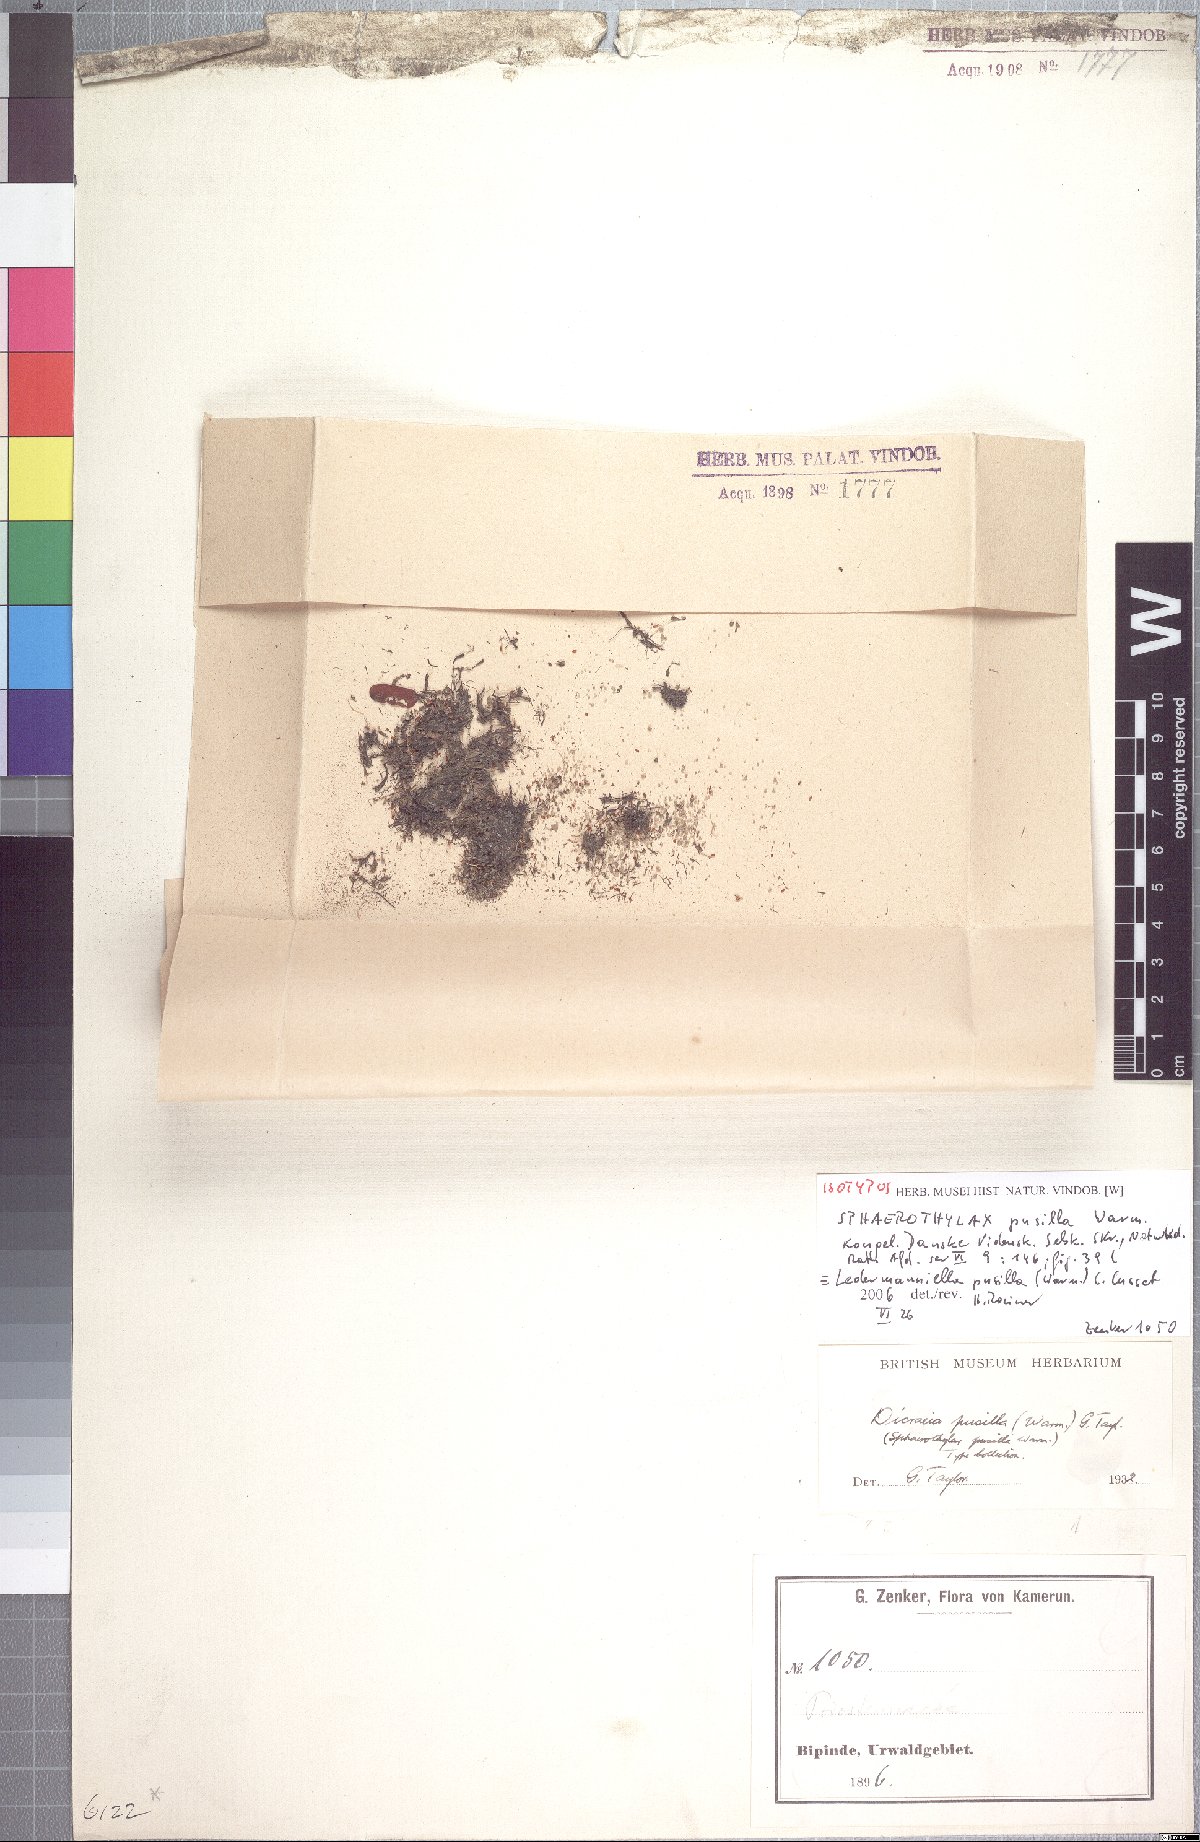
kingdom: Plantae
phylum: Tracheophyta
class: Magnoliopsida
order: Malpighiales
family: Podostemaceae
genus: Ledermanniella
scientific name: Ledermanniella pusilla
